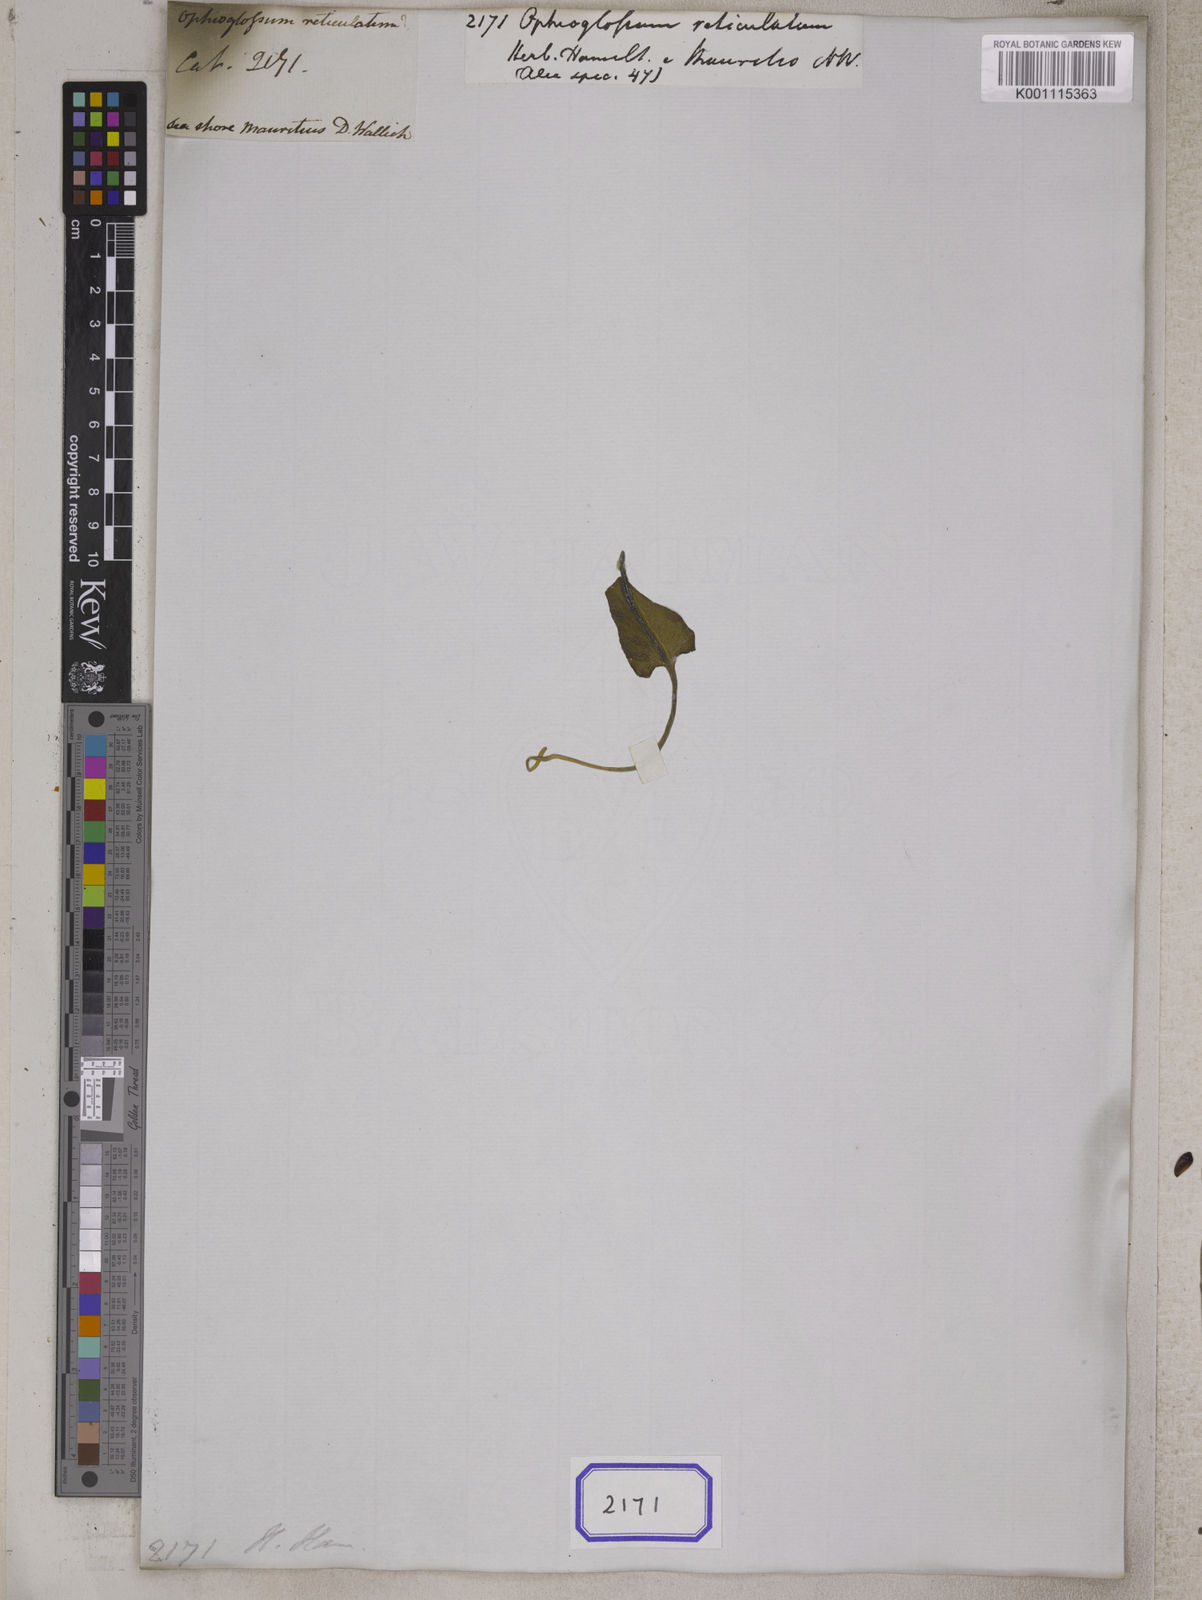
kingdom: Plantae
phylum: Tracheophyta
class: Polypodiopsida
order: Ophioglossales
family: Ophioglossaceae
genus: Ophioglossum
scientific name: Ophioglossum reticulatum
